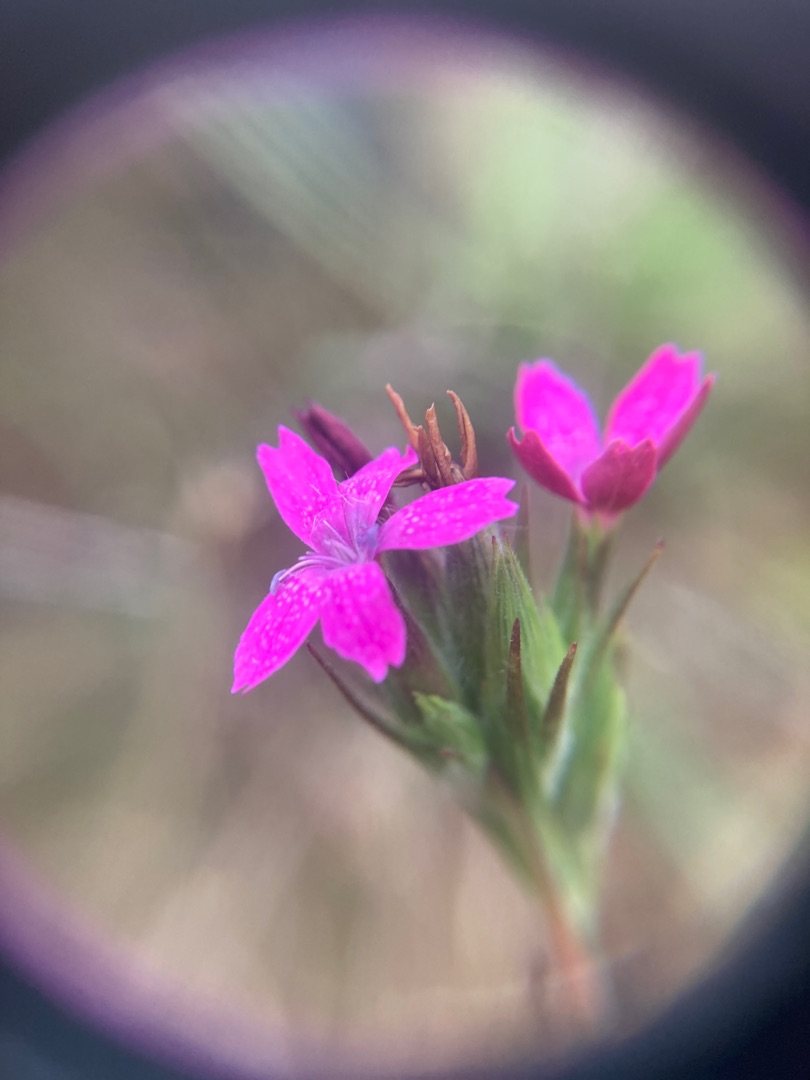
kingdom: Plantae
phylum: Tracheophyta
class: Magnoliopsida
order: Caryophyllales
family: Caryophyllaceae
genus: Dianthus
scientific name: Dianthus armeria
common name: Kost-nellike
